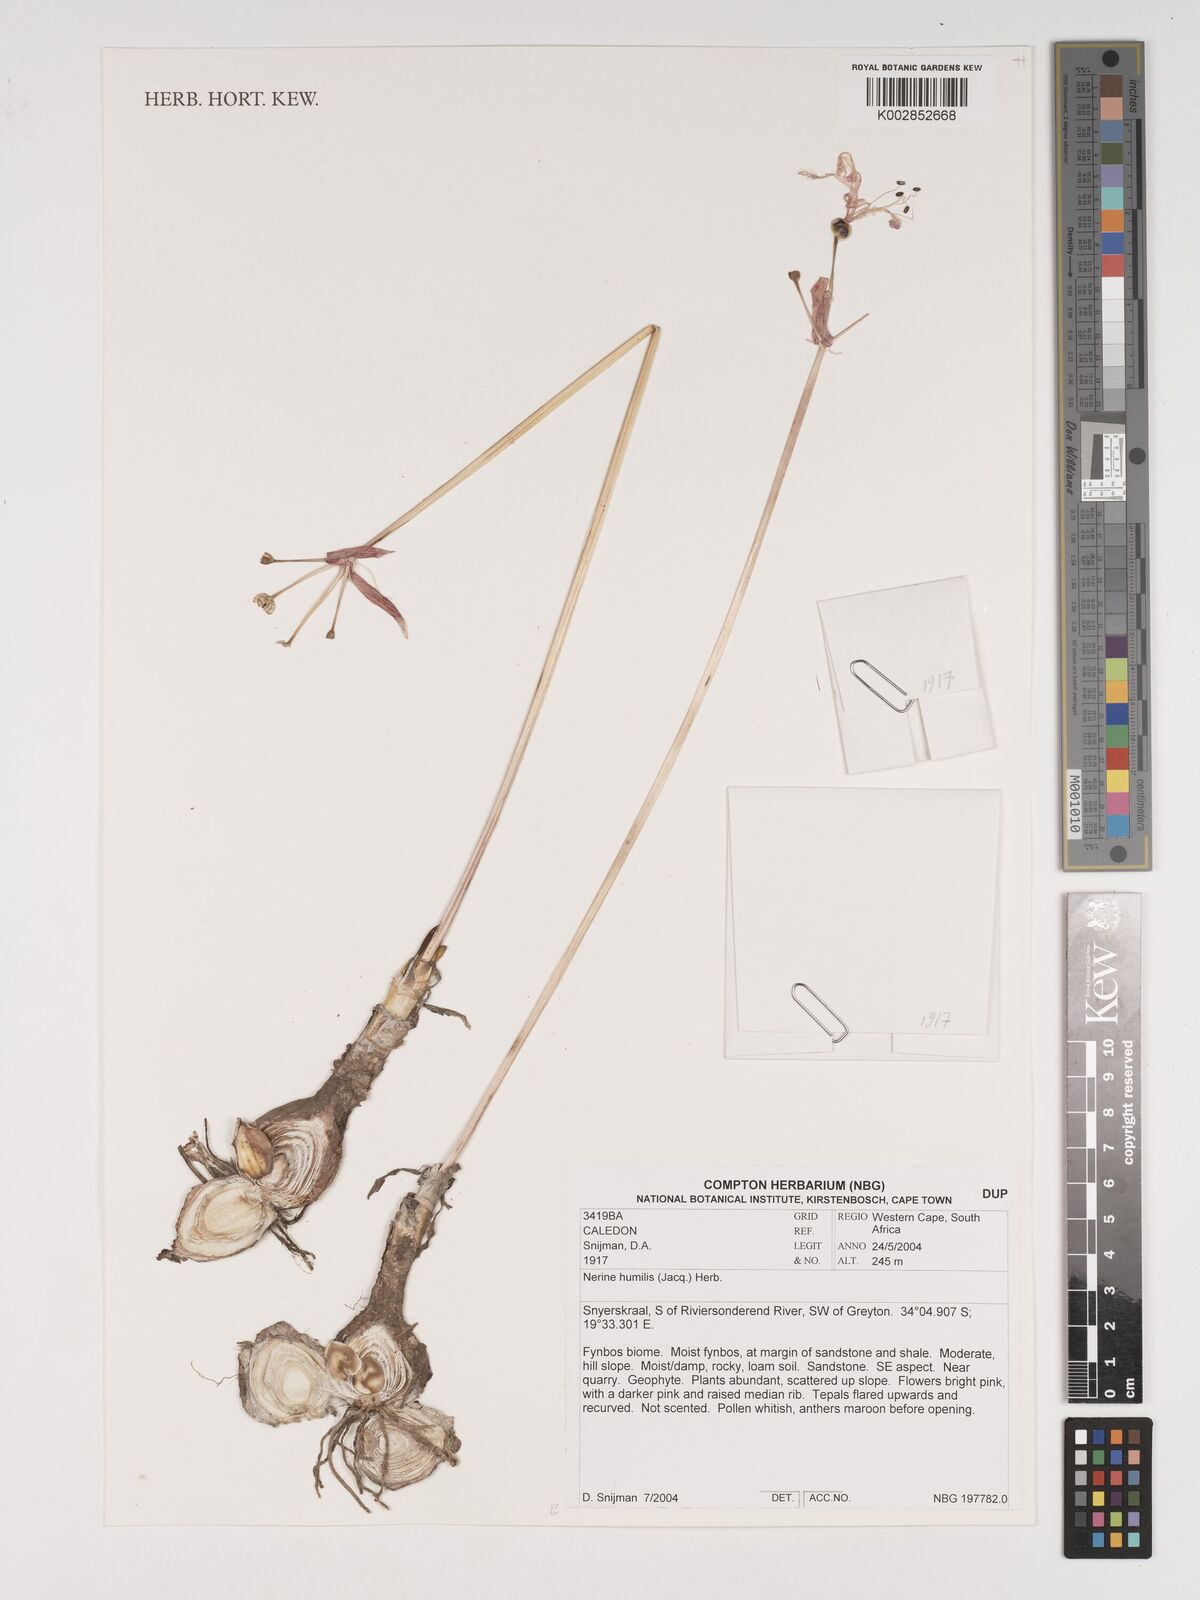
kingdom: Plantae
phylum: Tracheophyta
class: Liliopsida
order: Asparagales
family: Amaryllidaceae
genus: Nerine
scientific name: Nerine humilis
